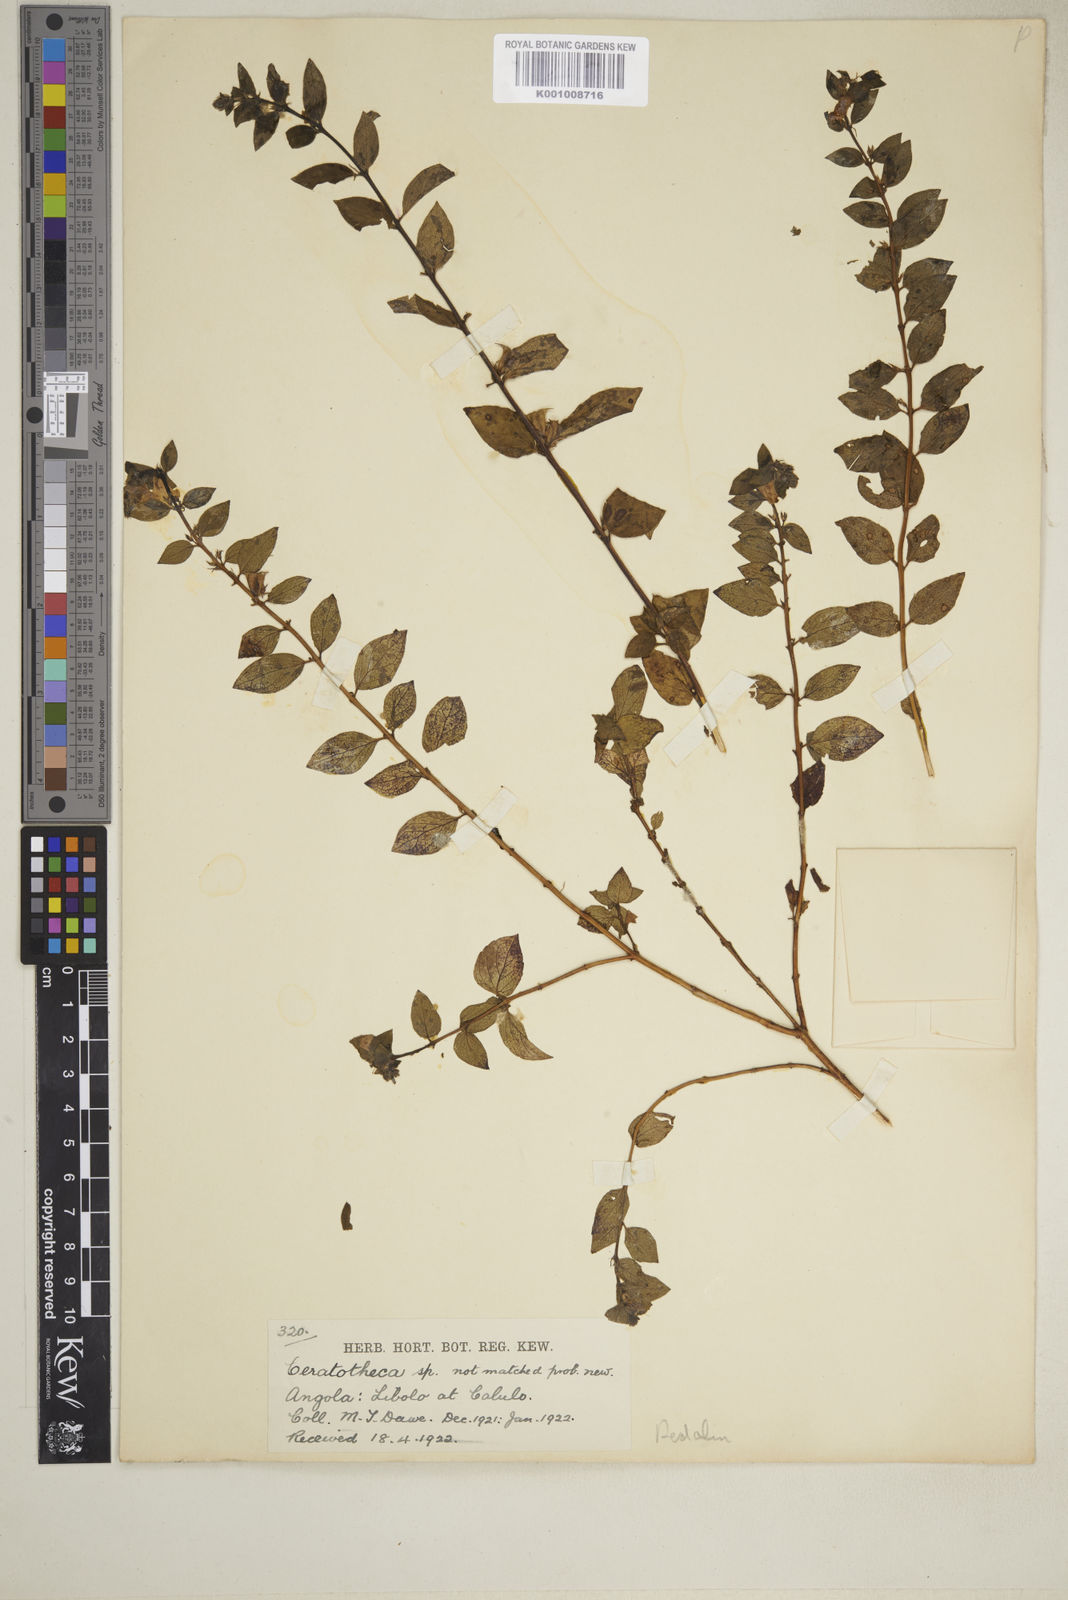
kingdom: Plantae
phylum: Tracheophyta
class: Magnoliopsida
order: Lamiales
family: Pedaliaceae
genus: Sesamum
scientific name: Sesamum integribracteatum
